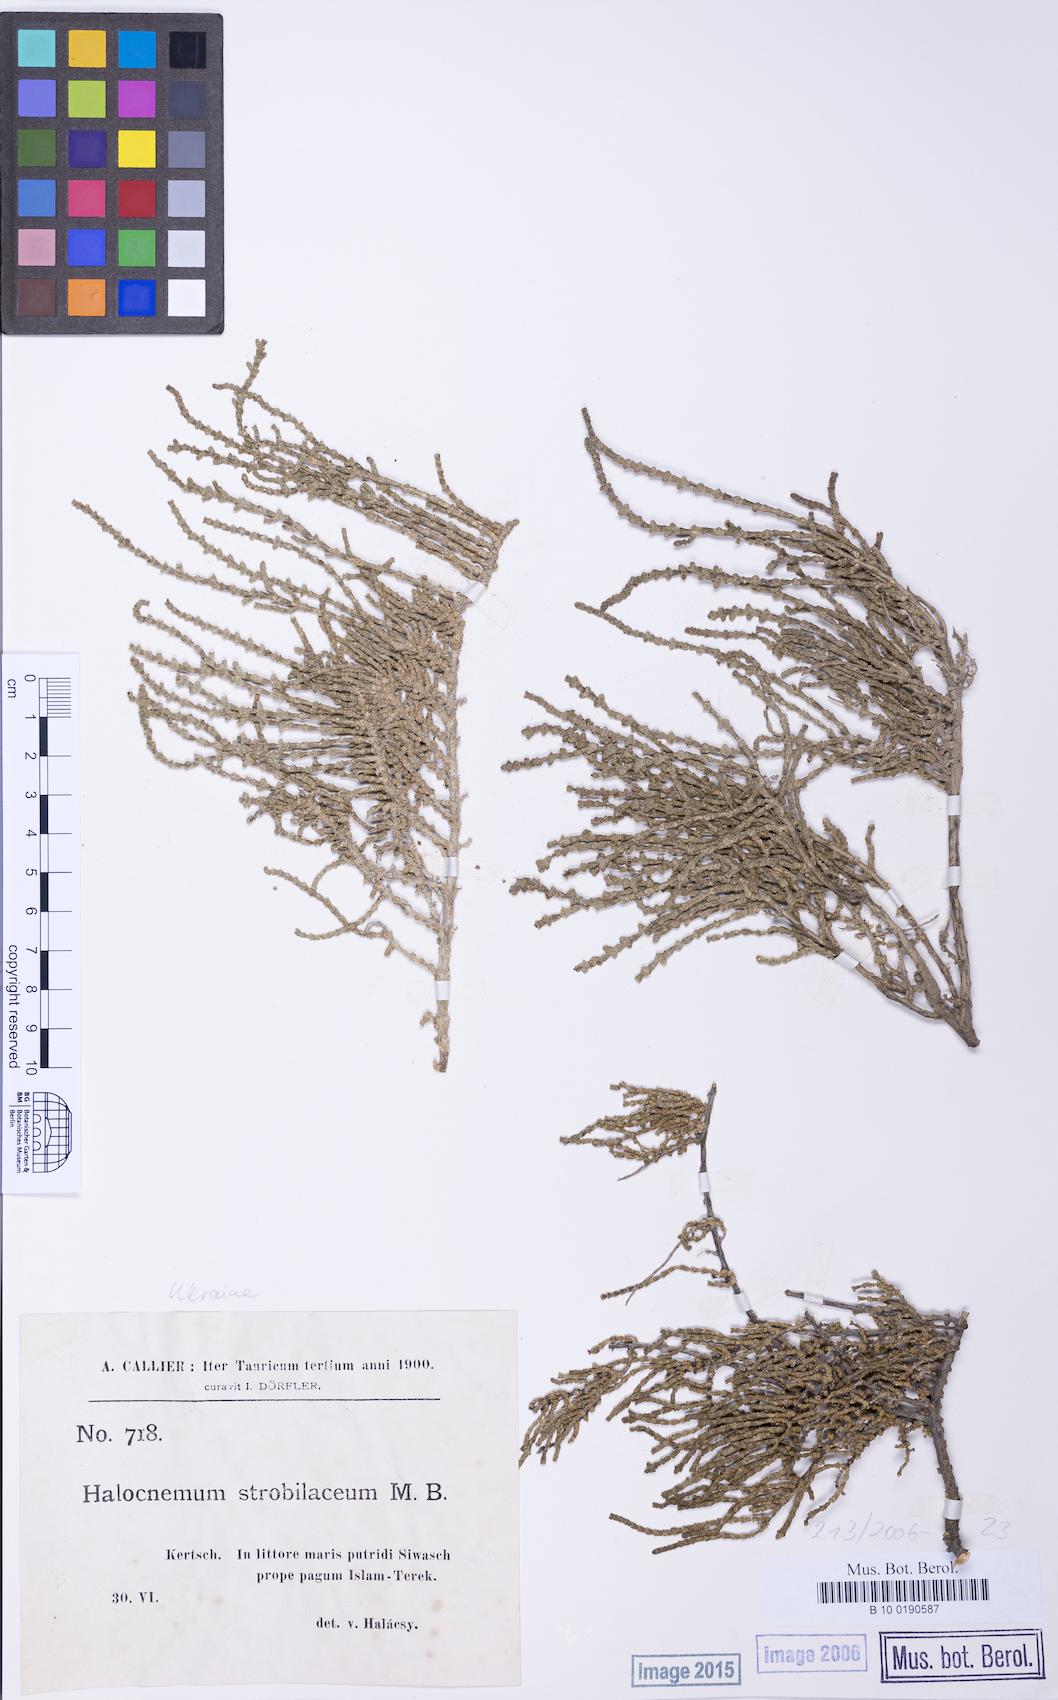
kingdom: Plantae
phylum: Tracheophyta
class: Magnoliopsida
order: Caryophyllales
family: Amaranthaceae
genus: Halocnemum
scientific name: Halocnemum strobilaceum
